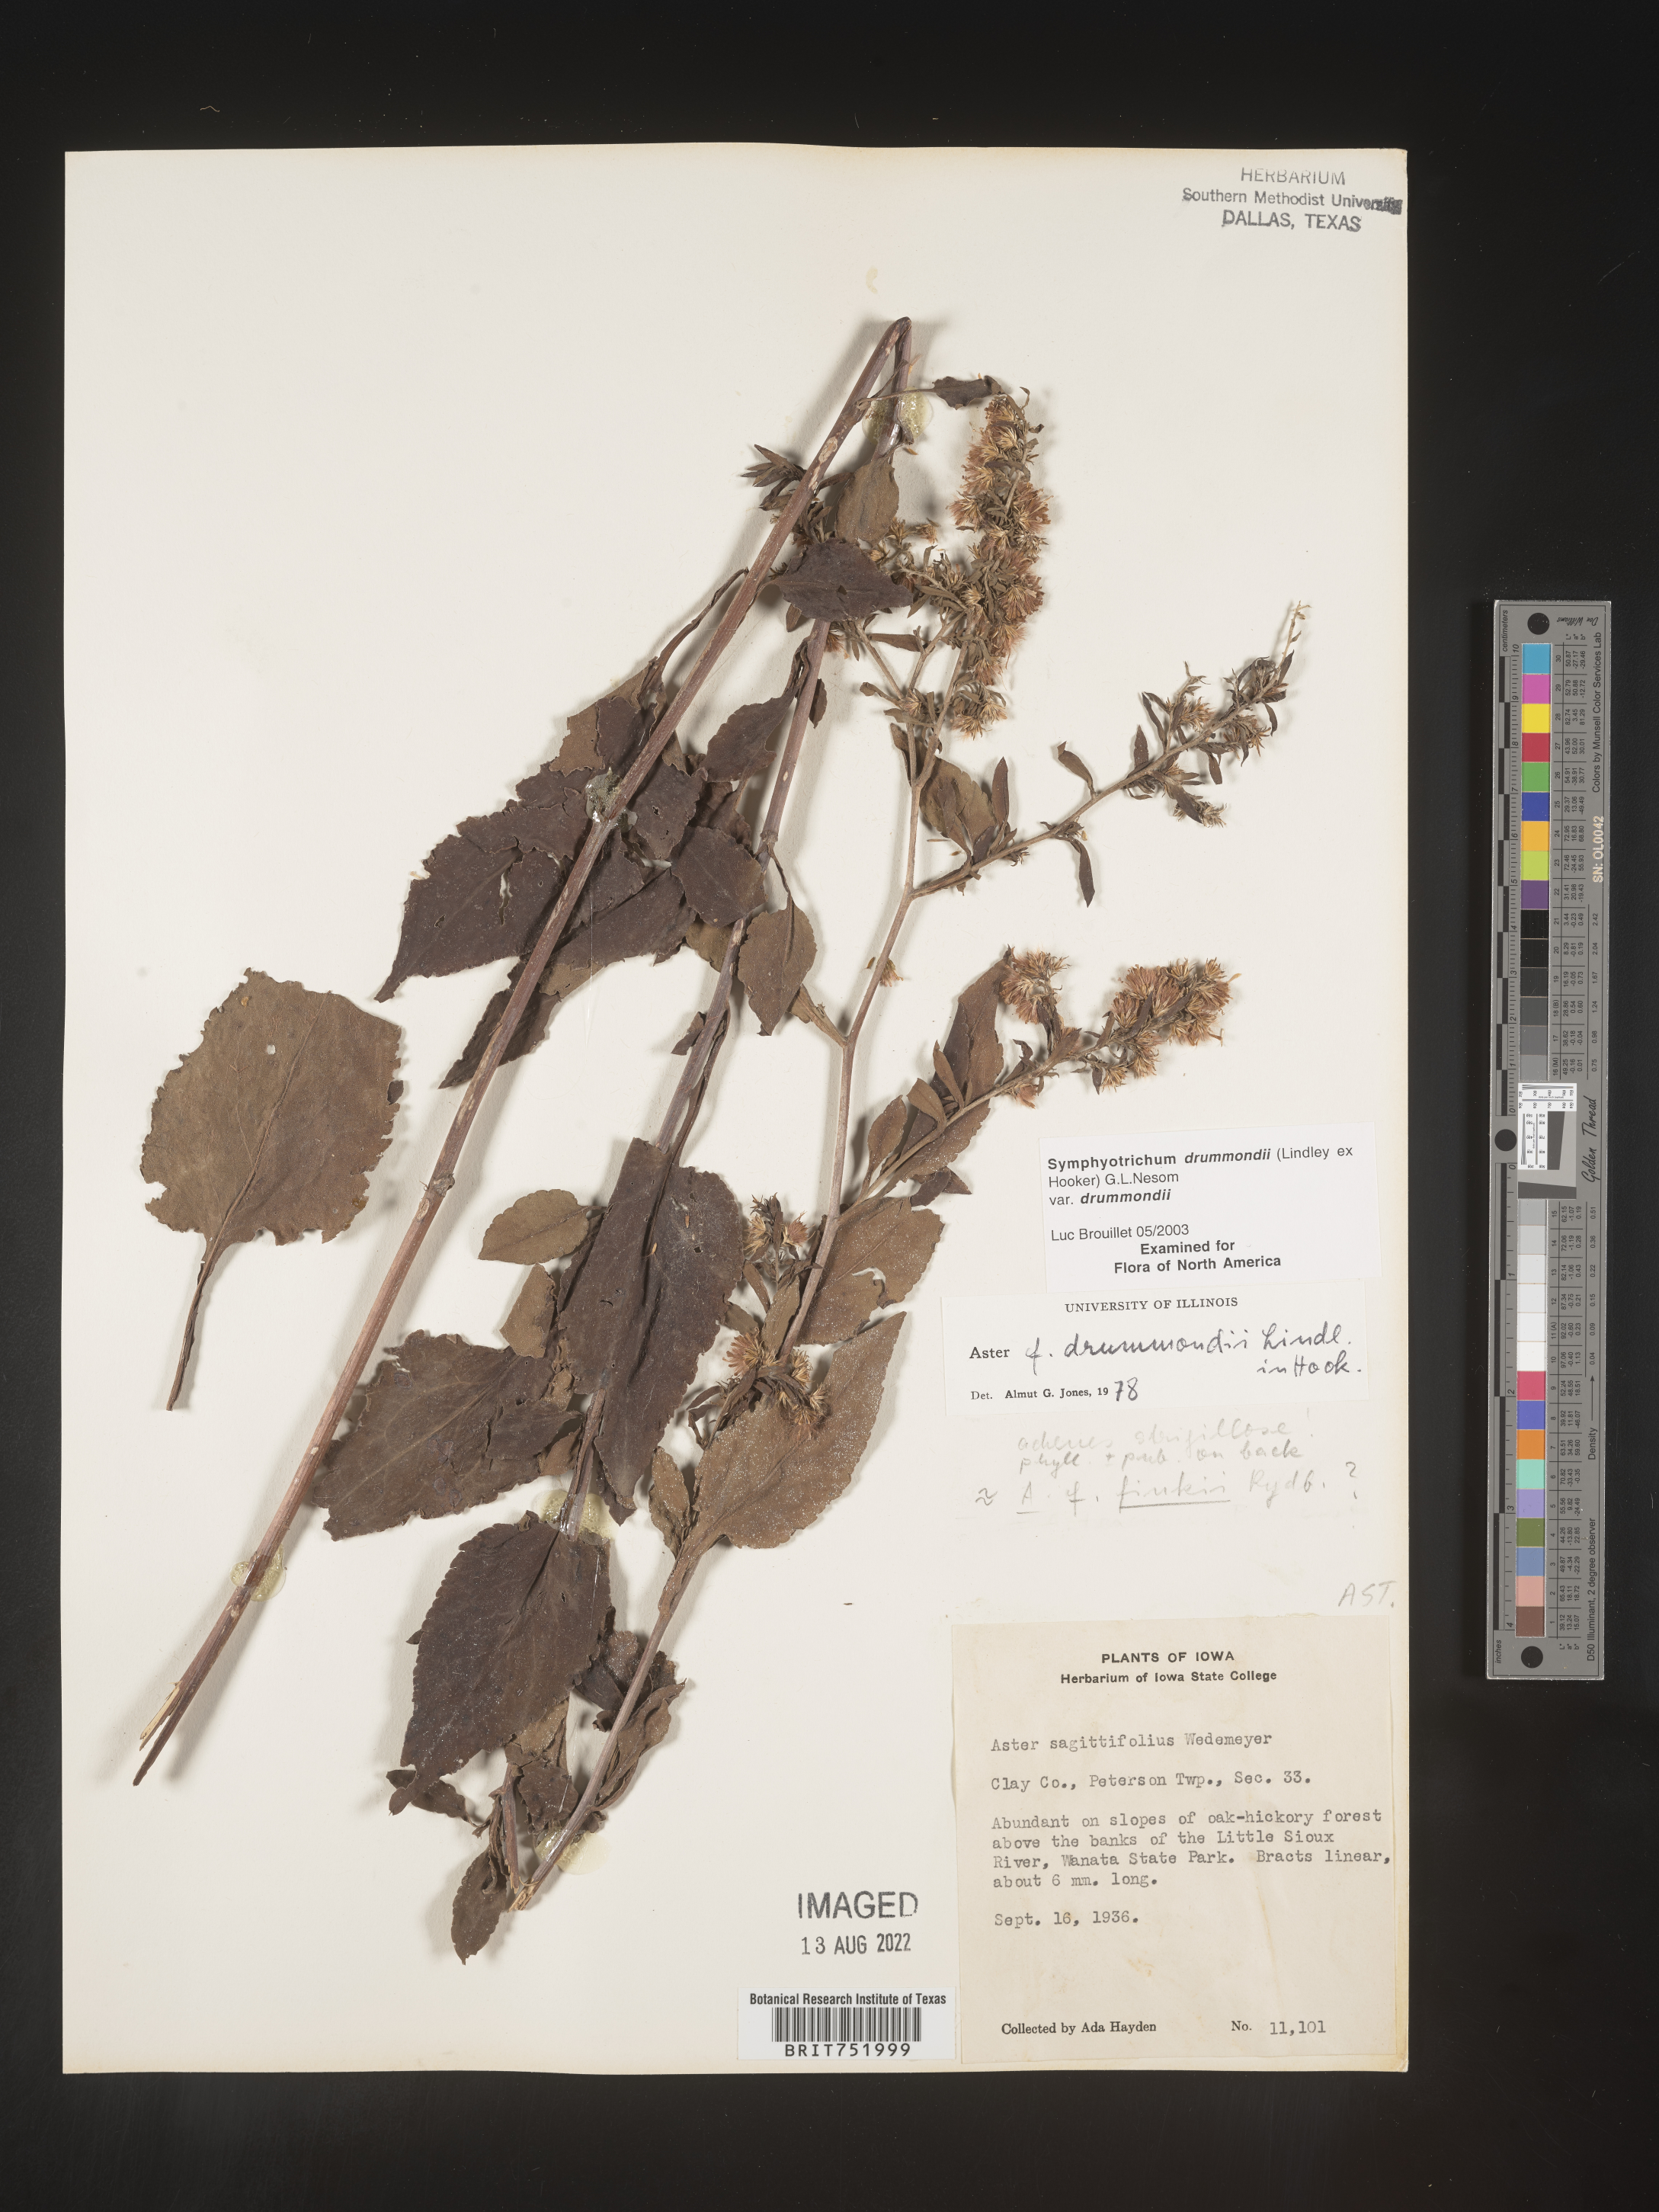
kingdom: Plantae
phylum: Tracheophyta
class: Magnoliopsida
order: Asterales
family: Asteraceae
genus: Symphyotrichum
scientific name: Symphyotrichum drummondii
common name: Drummond's aster
